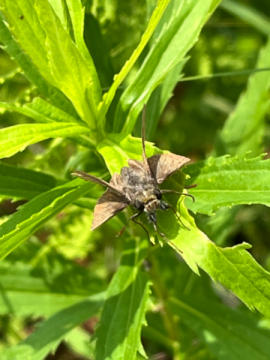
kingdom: Animalia
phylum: Arthropoda
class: Insecta
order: Lepidoptera
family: Hesperiidae
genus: Euphyes
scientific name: Euphyes vestris
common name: Dun Skipper
